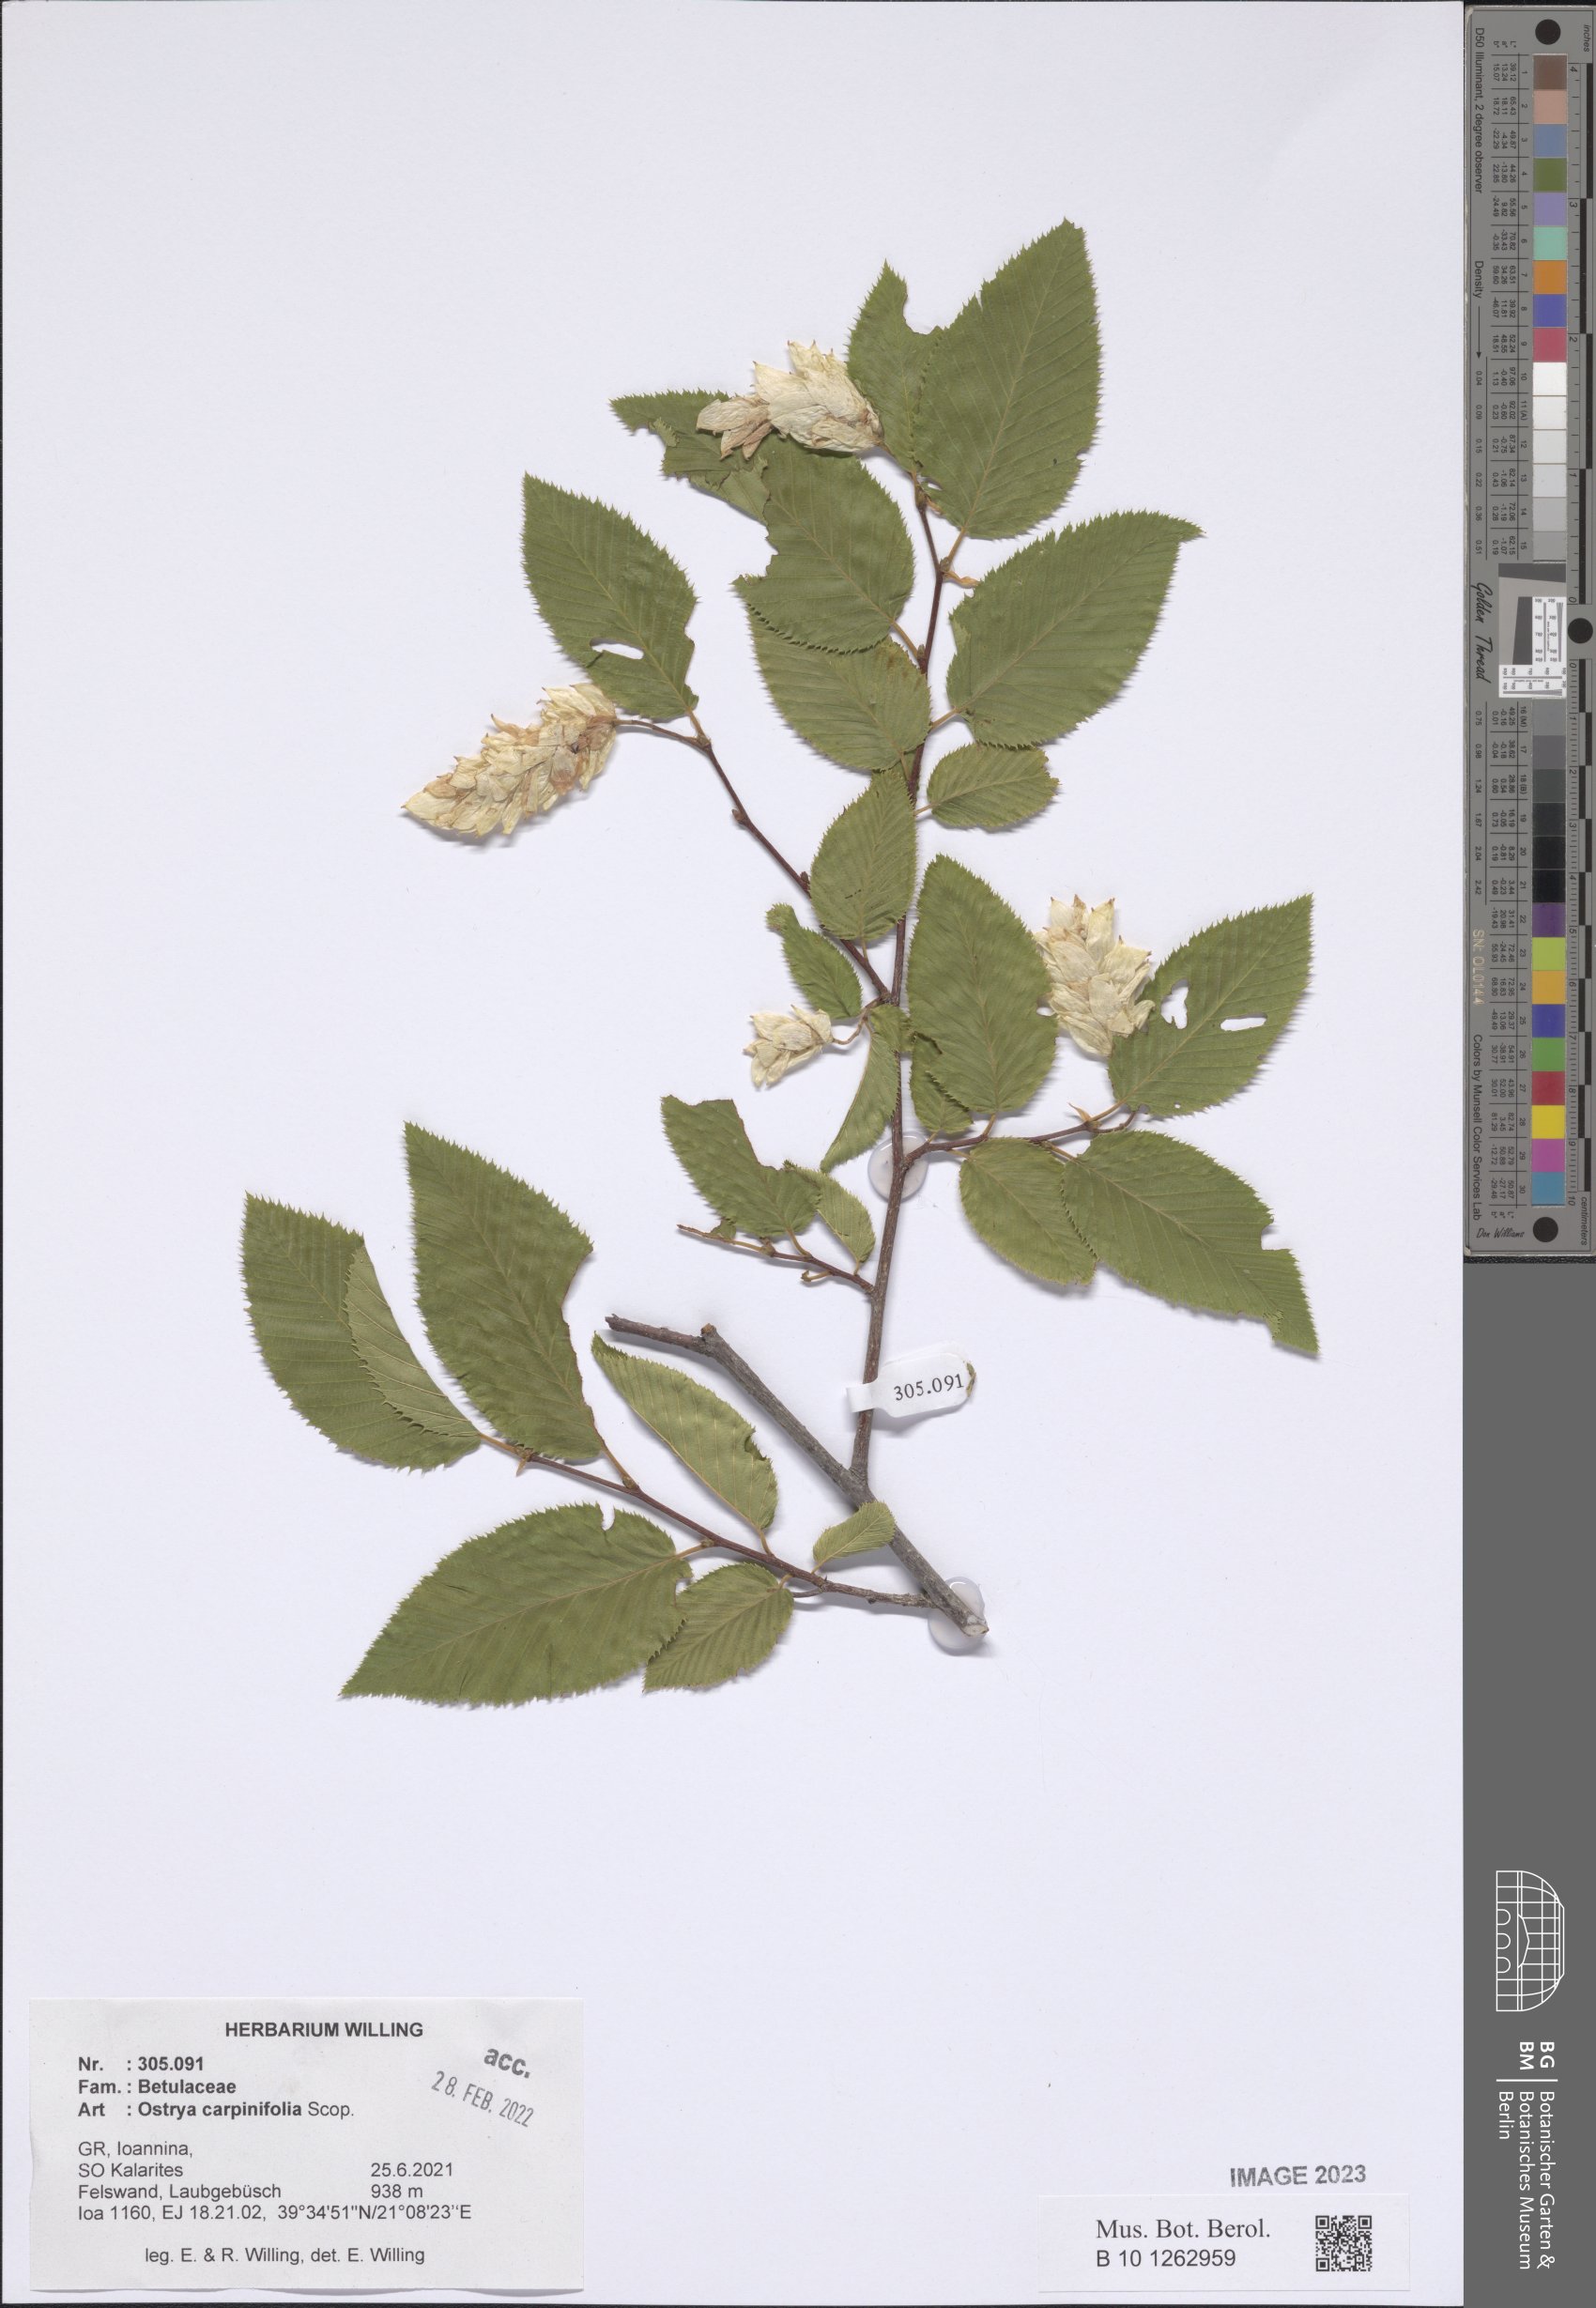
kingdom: Plantae
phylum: Tracheophyta
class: Magnoliopsida
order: Fagales
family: Betulaceae
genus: Ostrya
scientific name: Ostrya carpinifolia
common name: European hop-hornbeam
